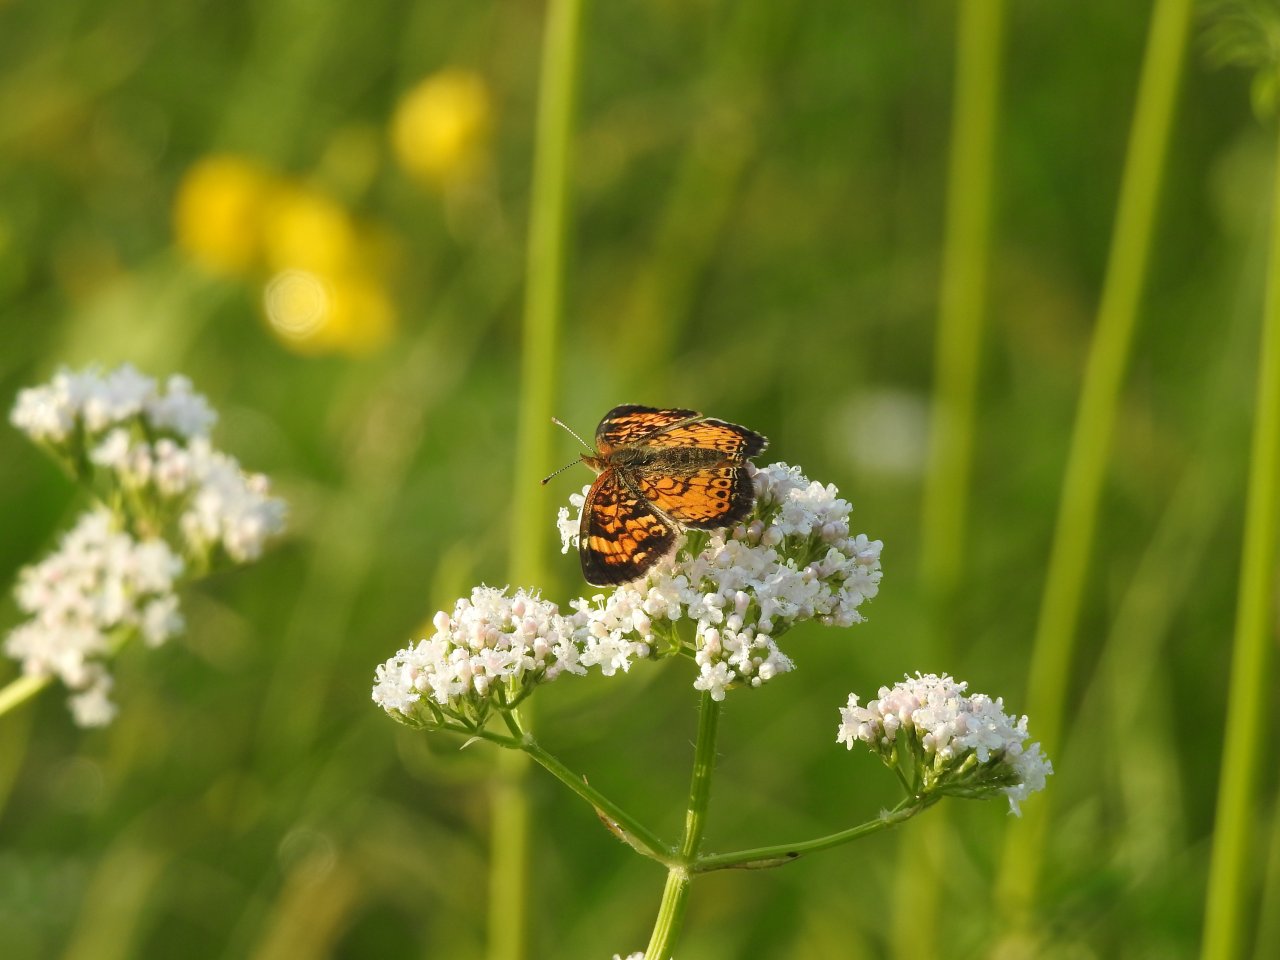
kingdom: Animalia
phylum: Arthropoda
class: Insecta
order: Lepidoptera
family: Nymphalidae
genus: Phyciodes
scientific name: Phyciodes tharos
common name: Pearl Crescent
